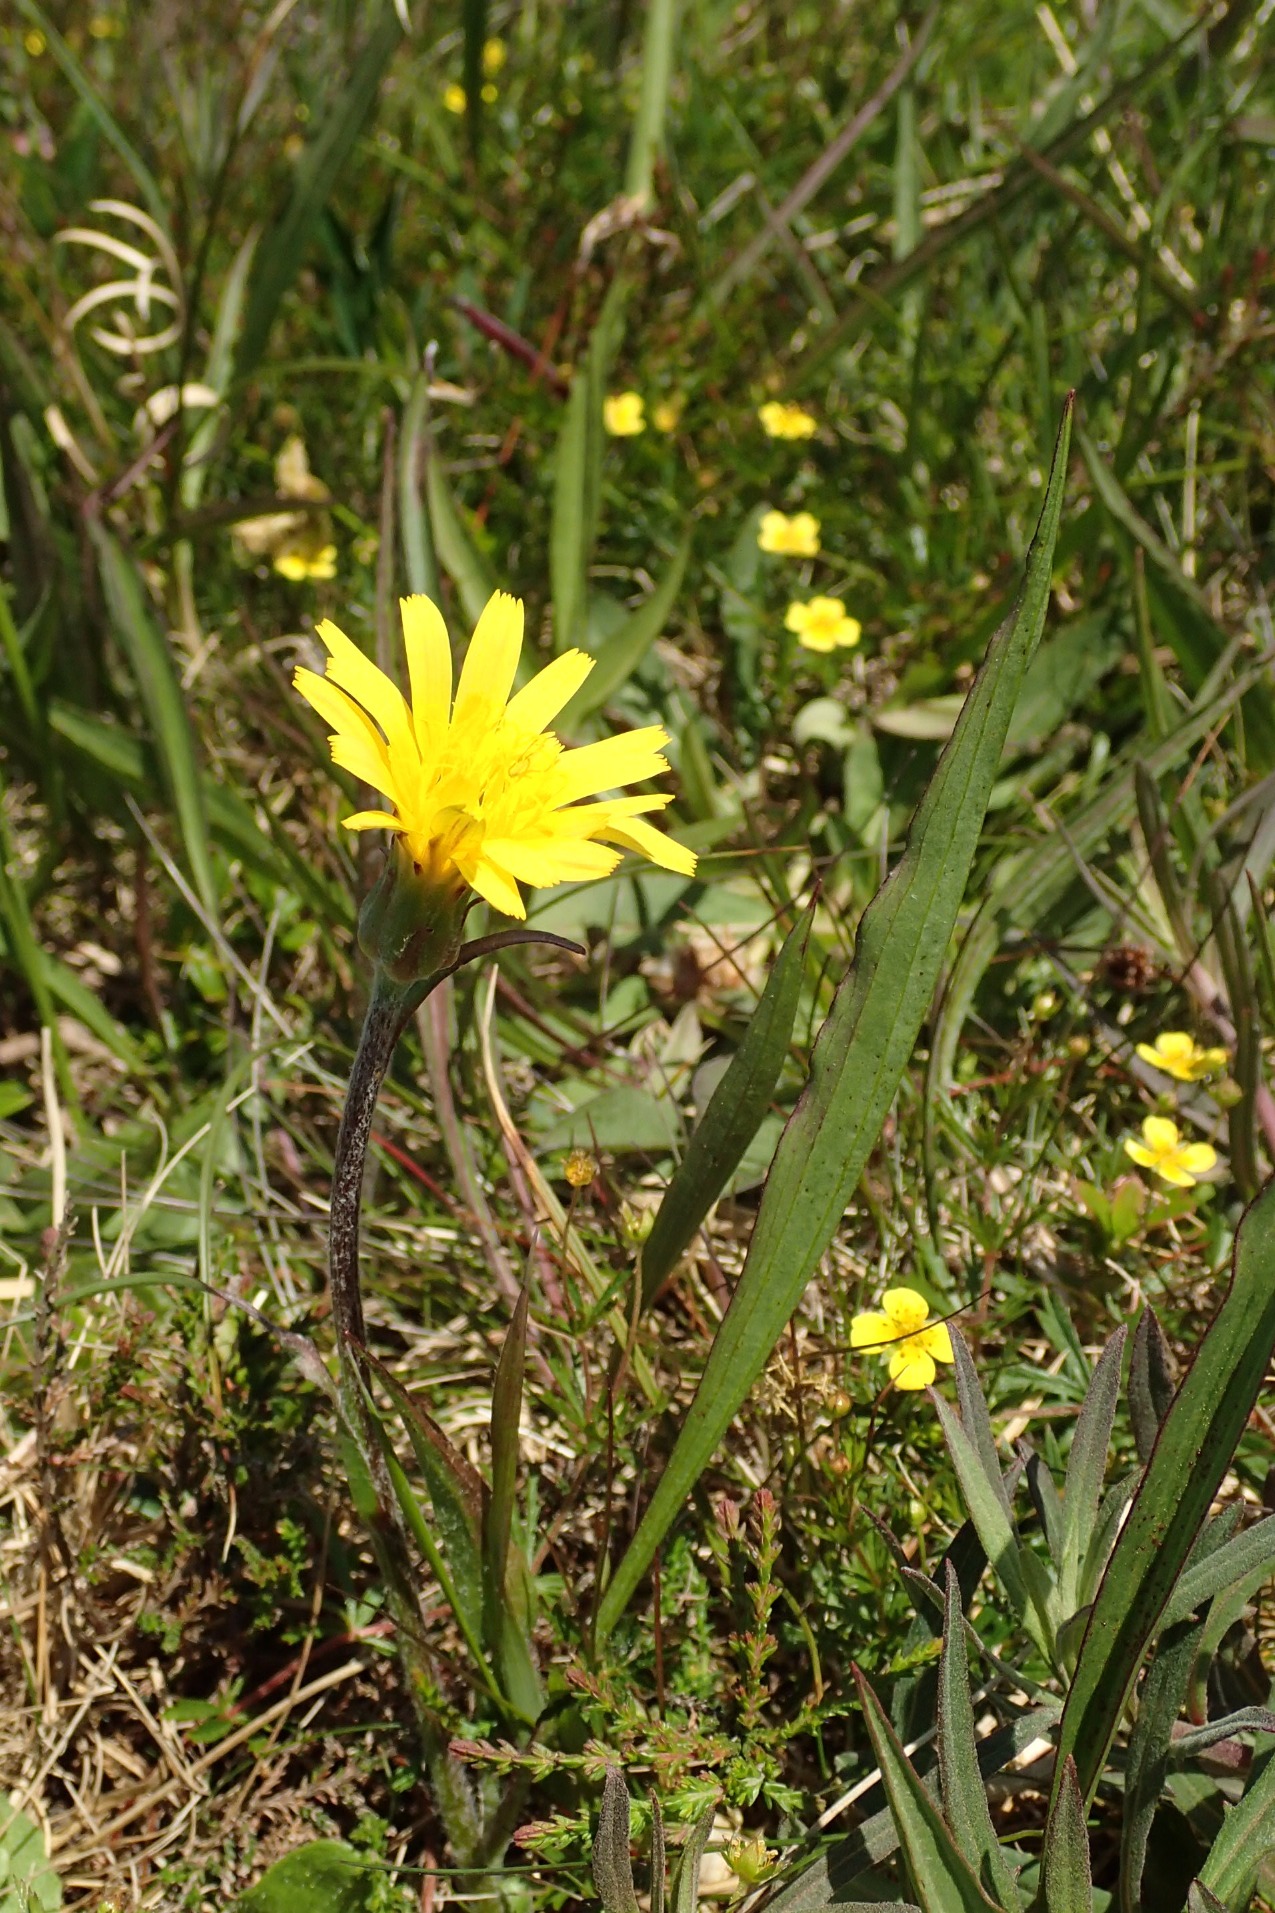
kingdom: Plantae
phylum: Tracheophyta
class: Magnoliopsida
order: Asterales
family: Asteraceae
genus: Scorzonera
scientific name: Scorzonera humilis
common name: Lav skorsoner
